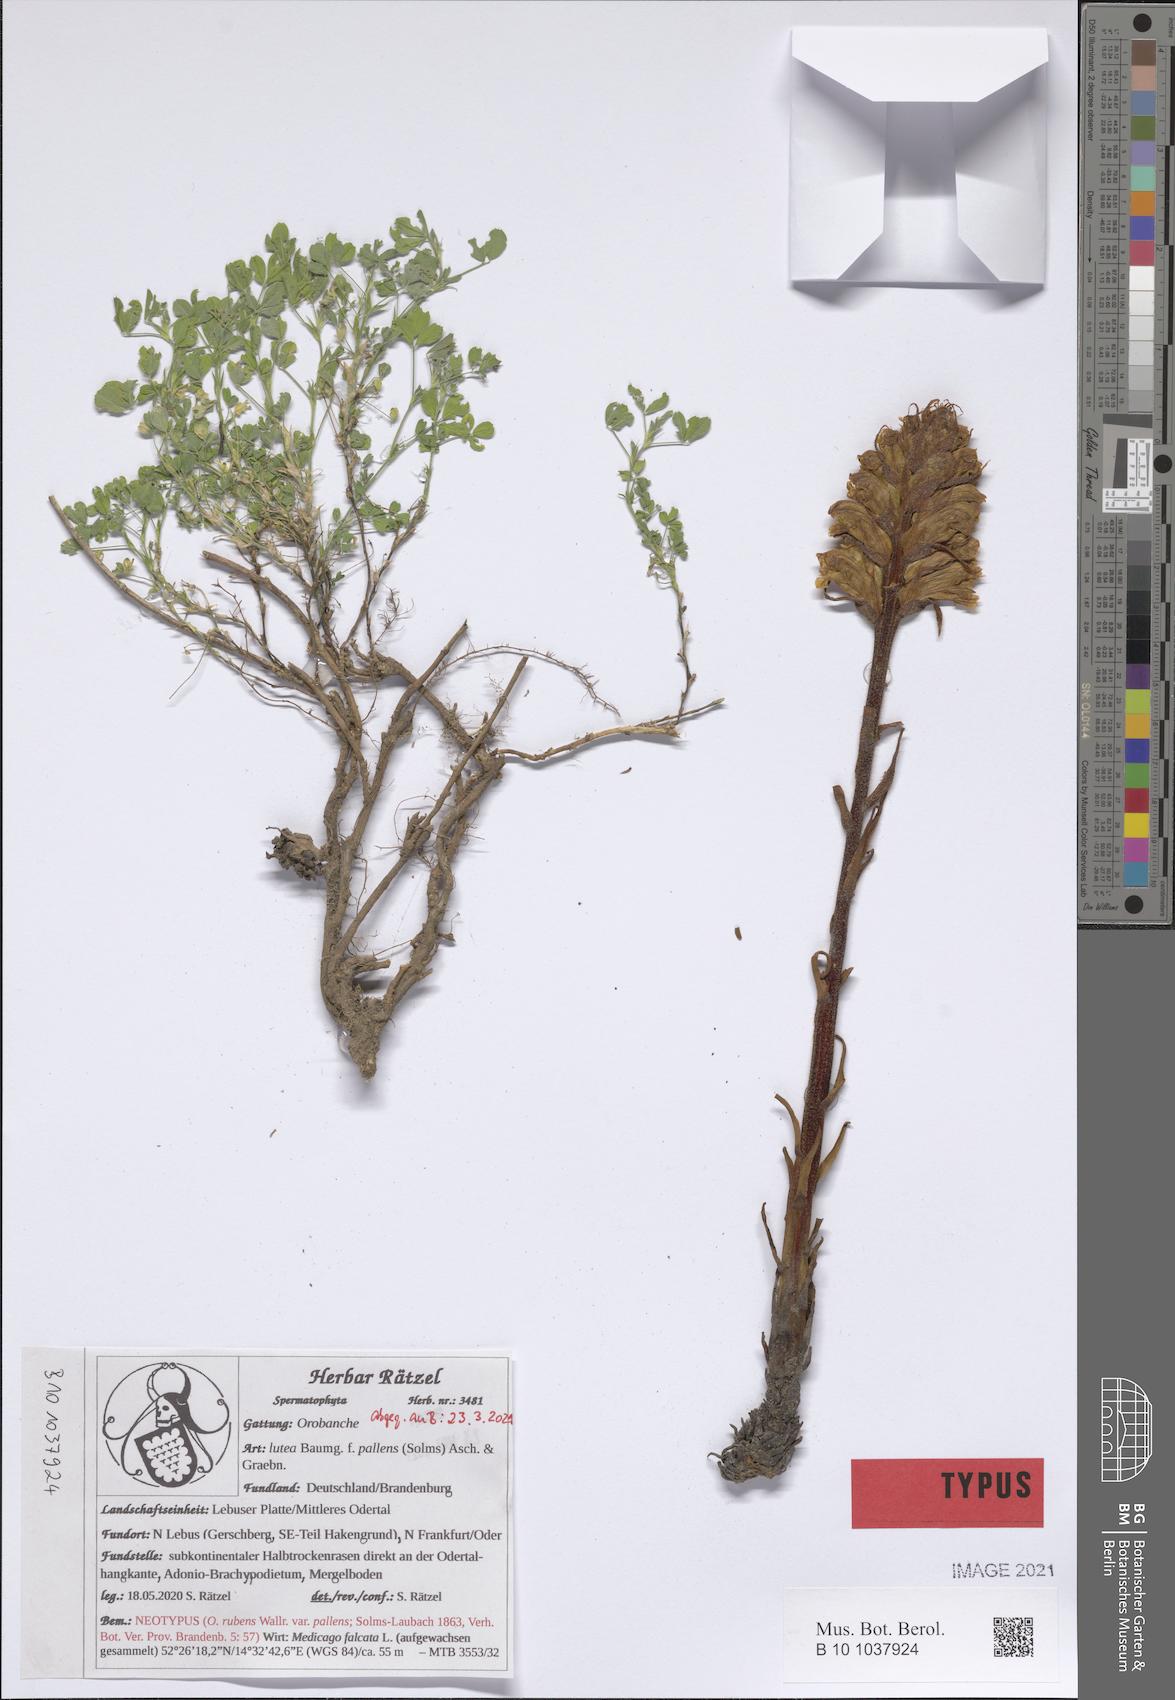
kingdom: Plantae
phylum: Tracheophyta
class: Magnoliopsida
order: Lamiales
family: Orobanchaceae
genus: Orobanche
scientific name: Orobanche lutea
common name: Yellow broomrape
